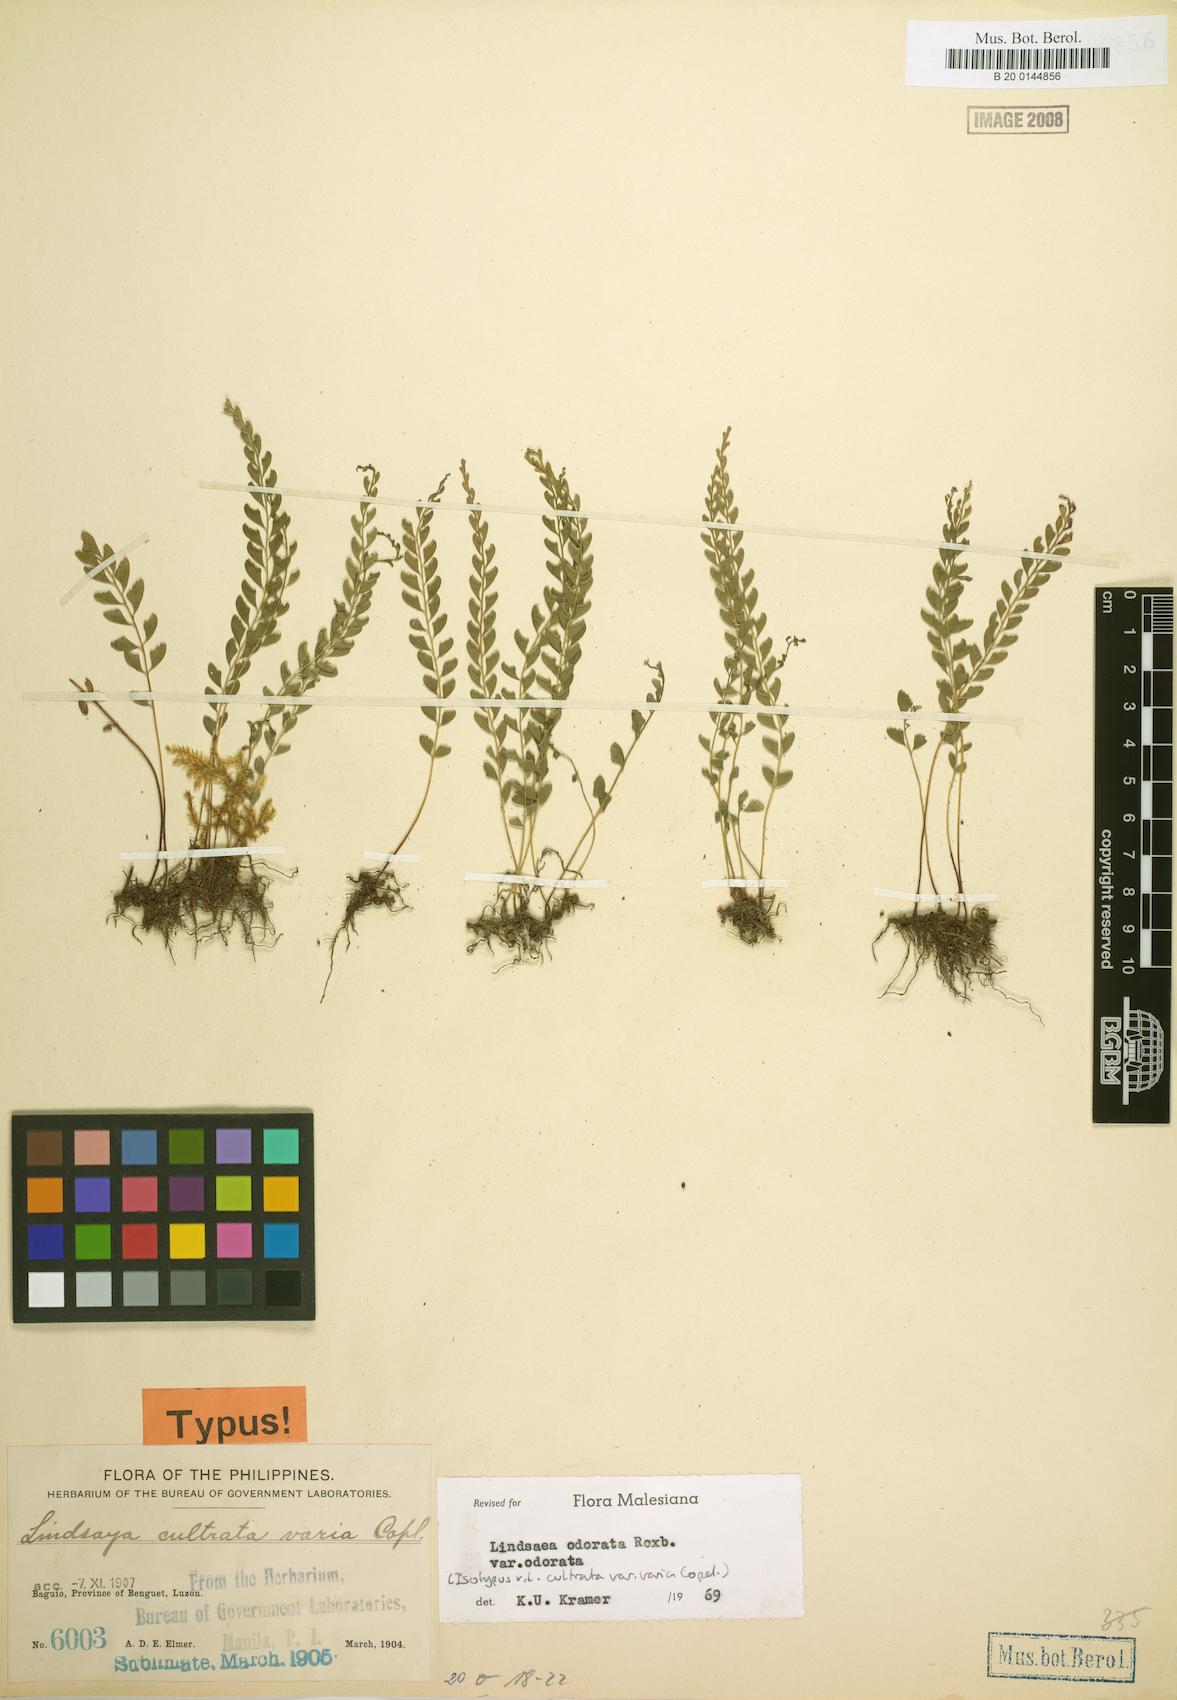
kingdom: Plantae
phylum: Tracheophyta
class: Polypodiopsida
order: Polypodiales
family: Lindsaeaceae
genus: Osmolindsaea
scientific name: Osmolindsaea odorata
